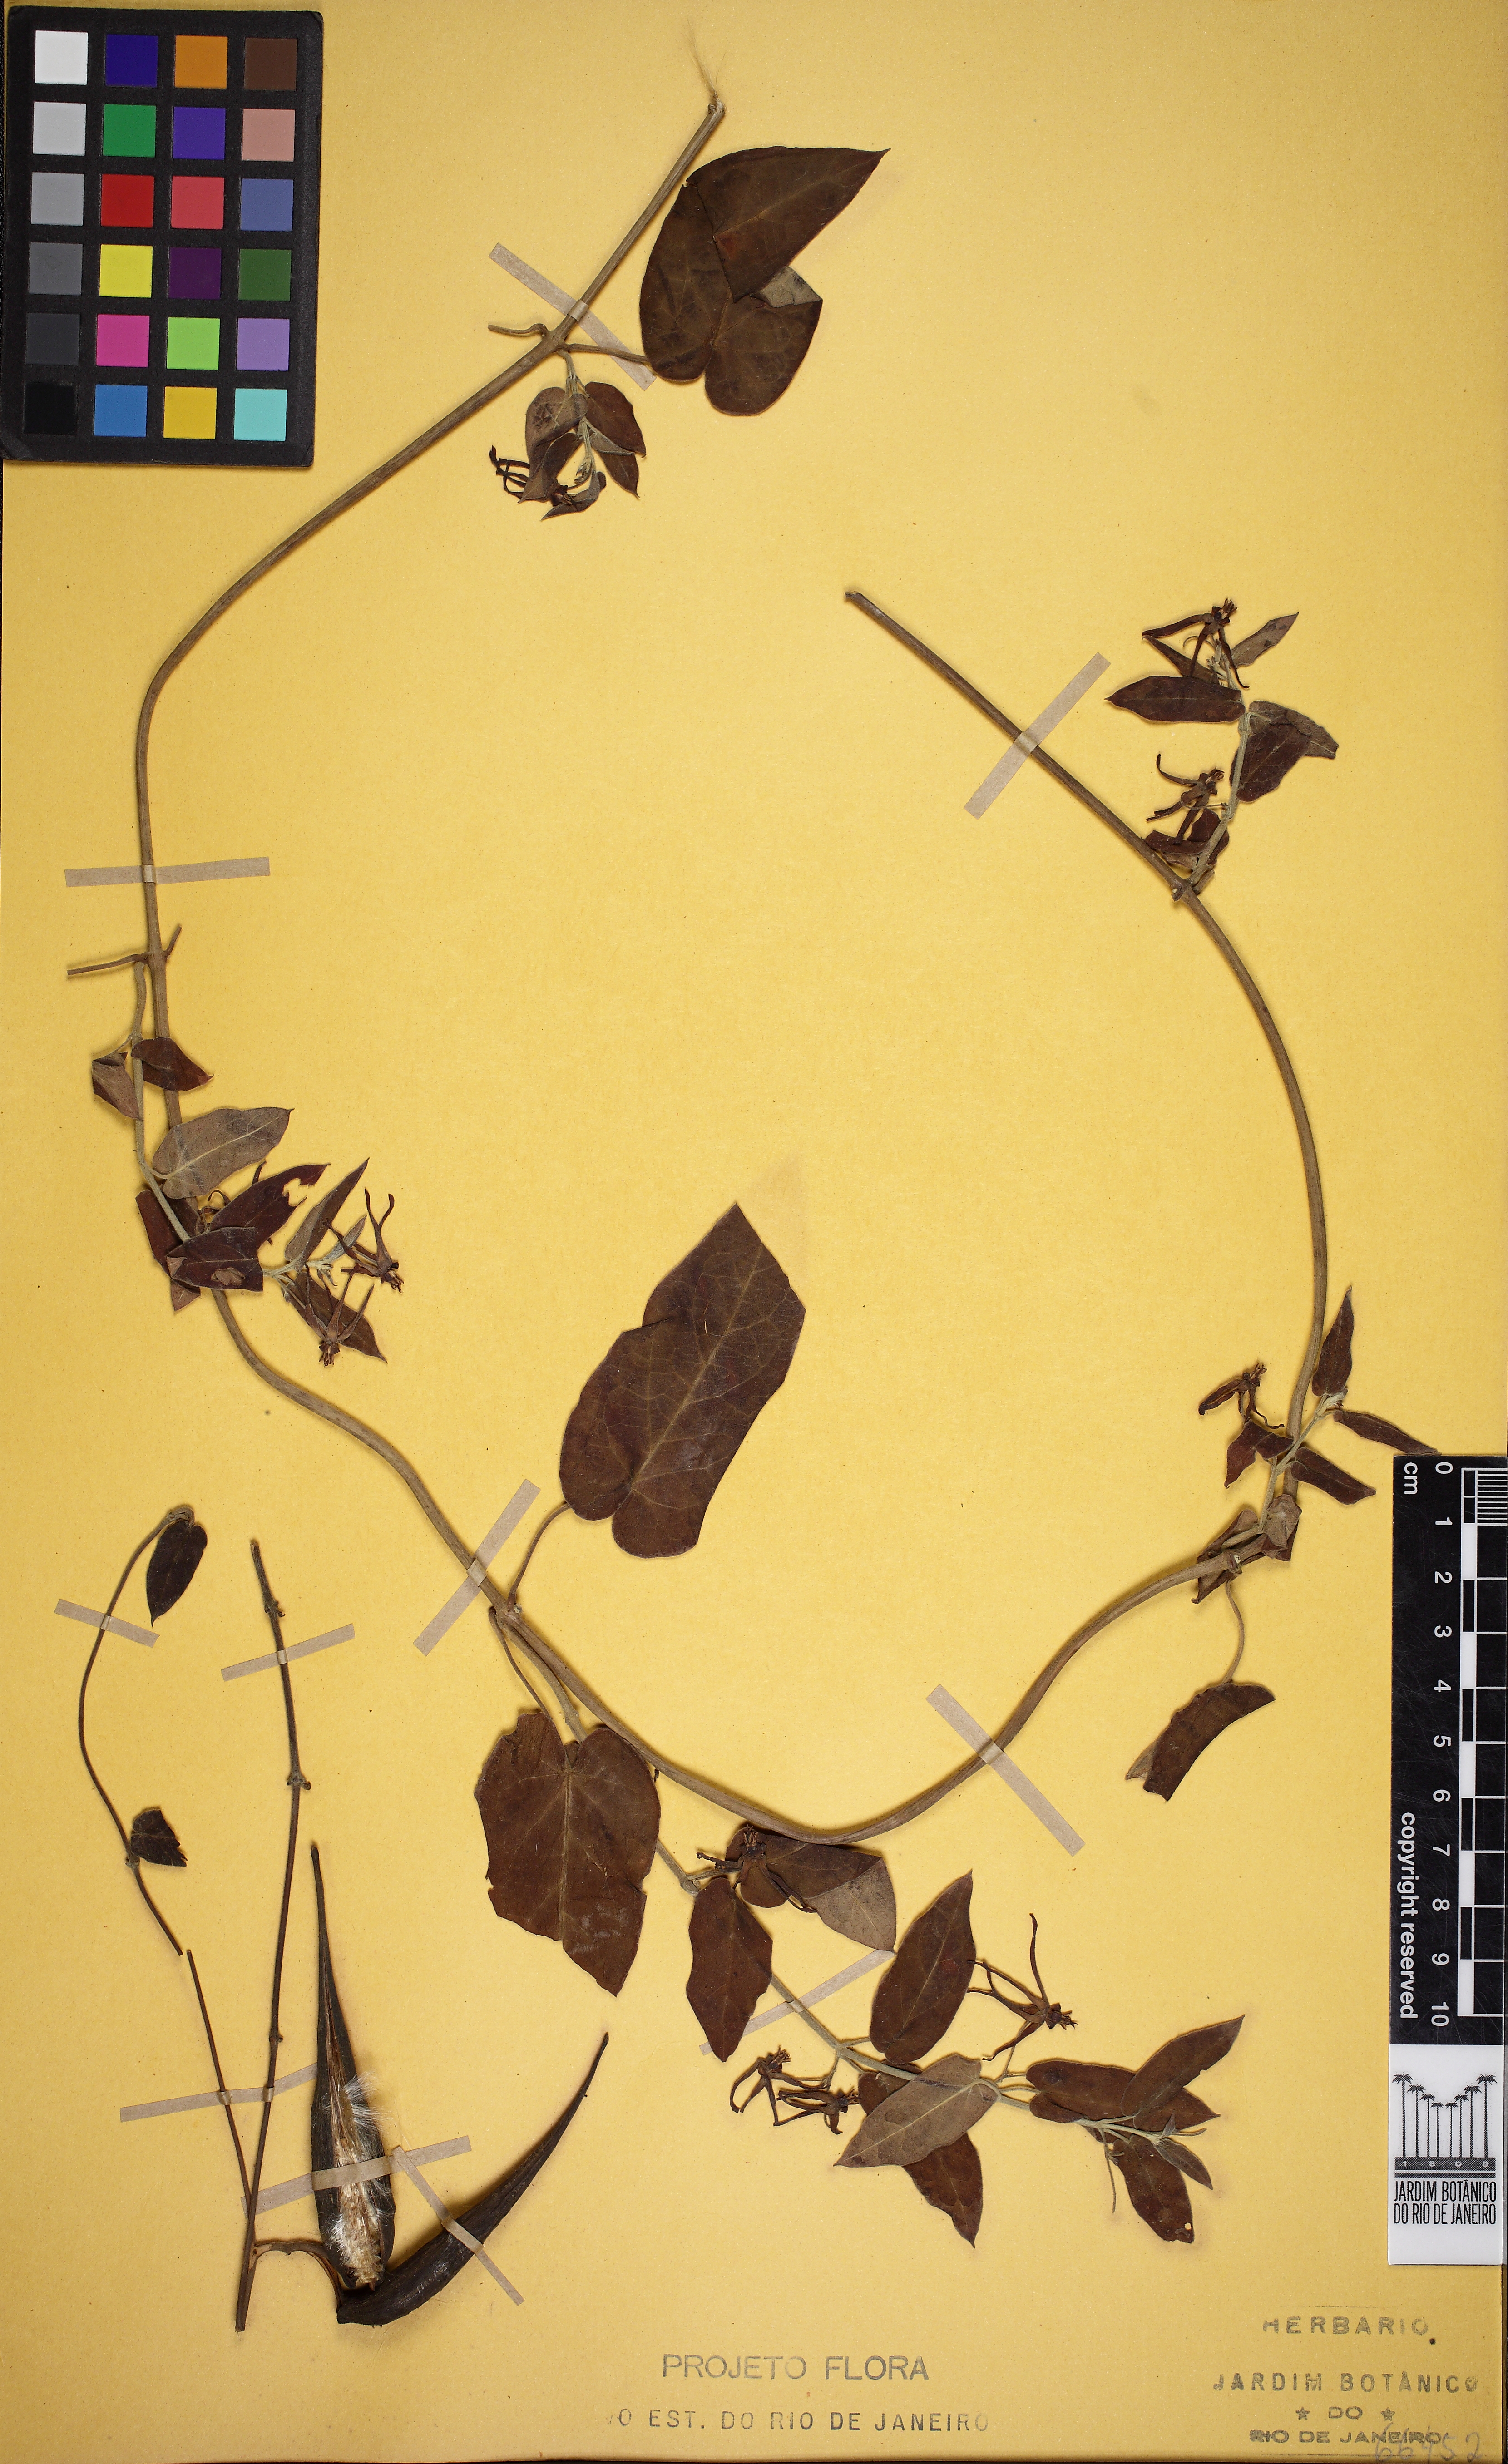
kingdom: Plantae
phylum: Tracheophyta
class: Magnoliopsida
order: Gentianales
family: Apocynaceae
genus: Oxypetalum
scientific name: Oxypetalum banksii
